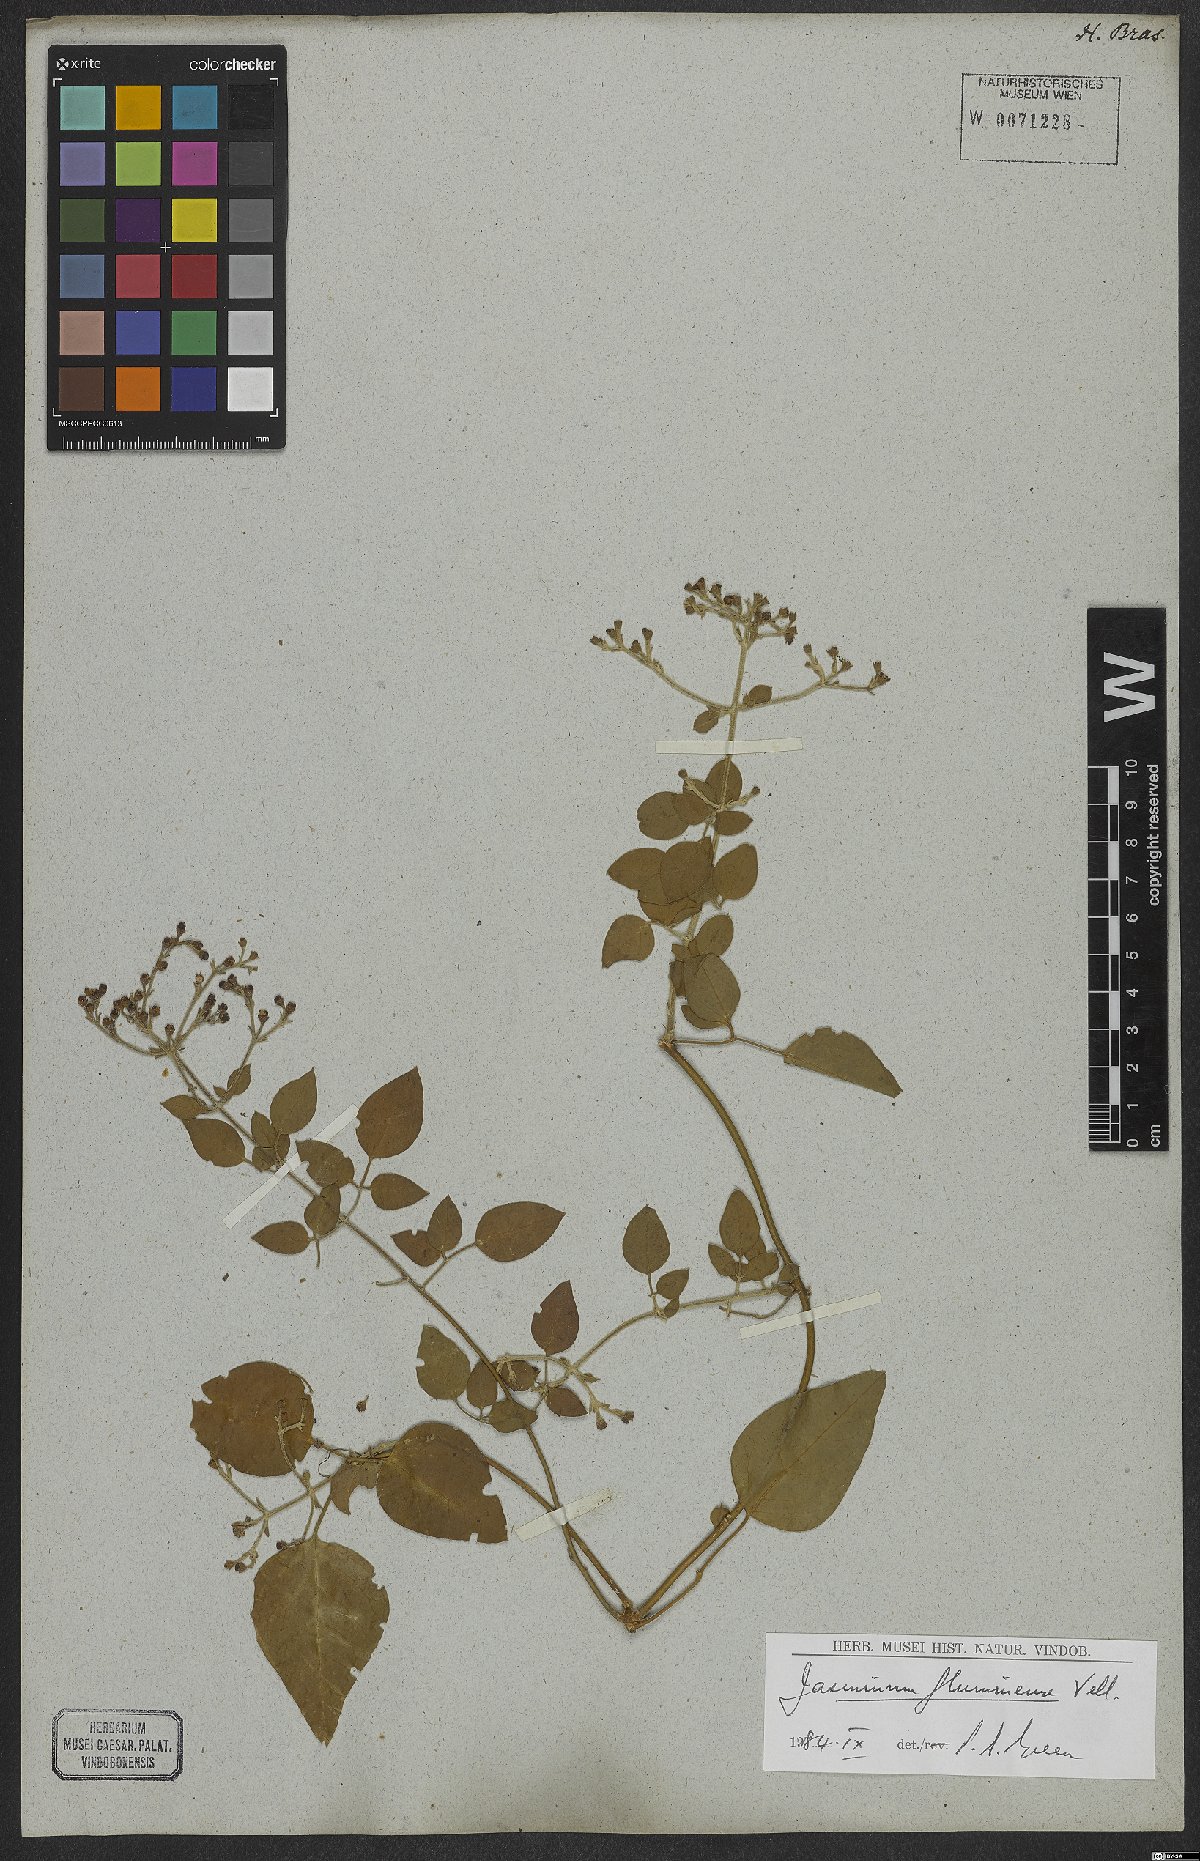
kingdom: Plantae
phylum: Tracheophyta
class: Magnoliopsida
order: Lamiales
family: Oleaceae
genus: Jasminum
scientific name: Jasminum fluminense
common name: Brazilian jasmine
